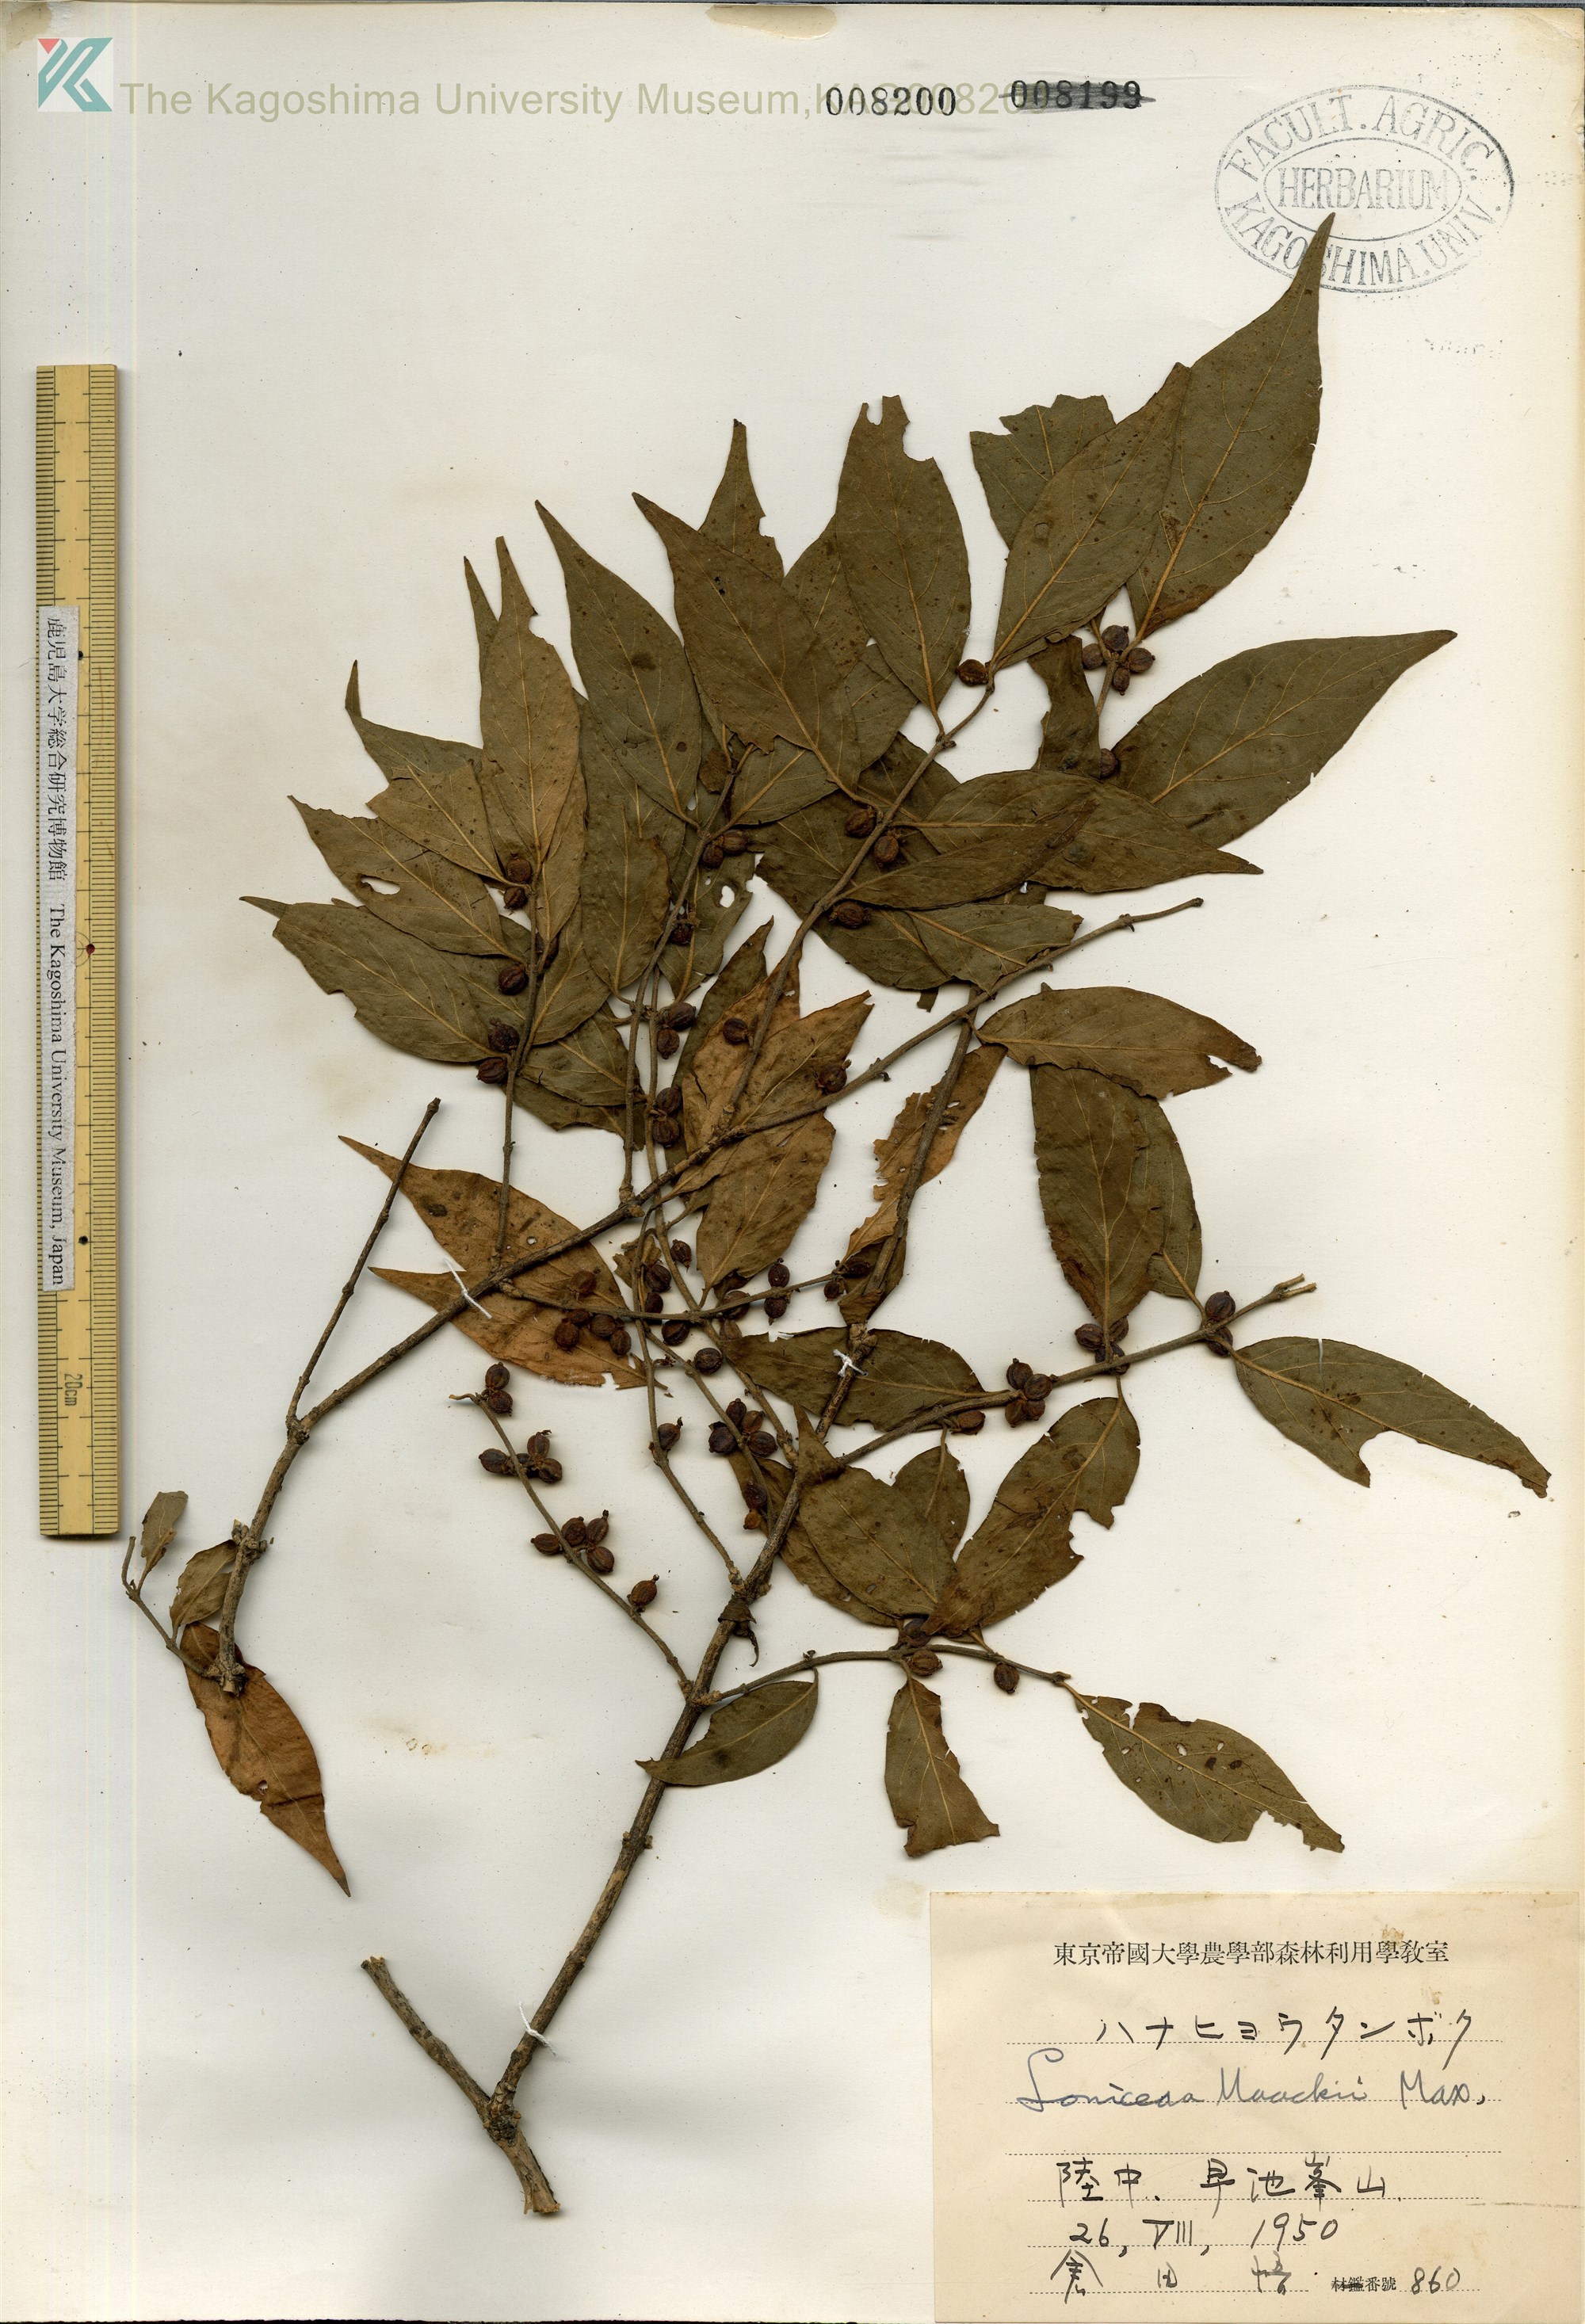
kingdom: Plantae
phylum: Tracheophyta
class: Magnoliopsida
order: Dipsacales
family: Caprifoliaceae
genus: Lonicera
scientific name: Lonicera maackii
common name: Amur honeysuckle
